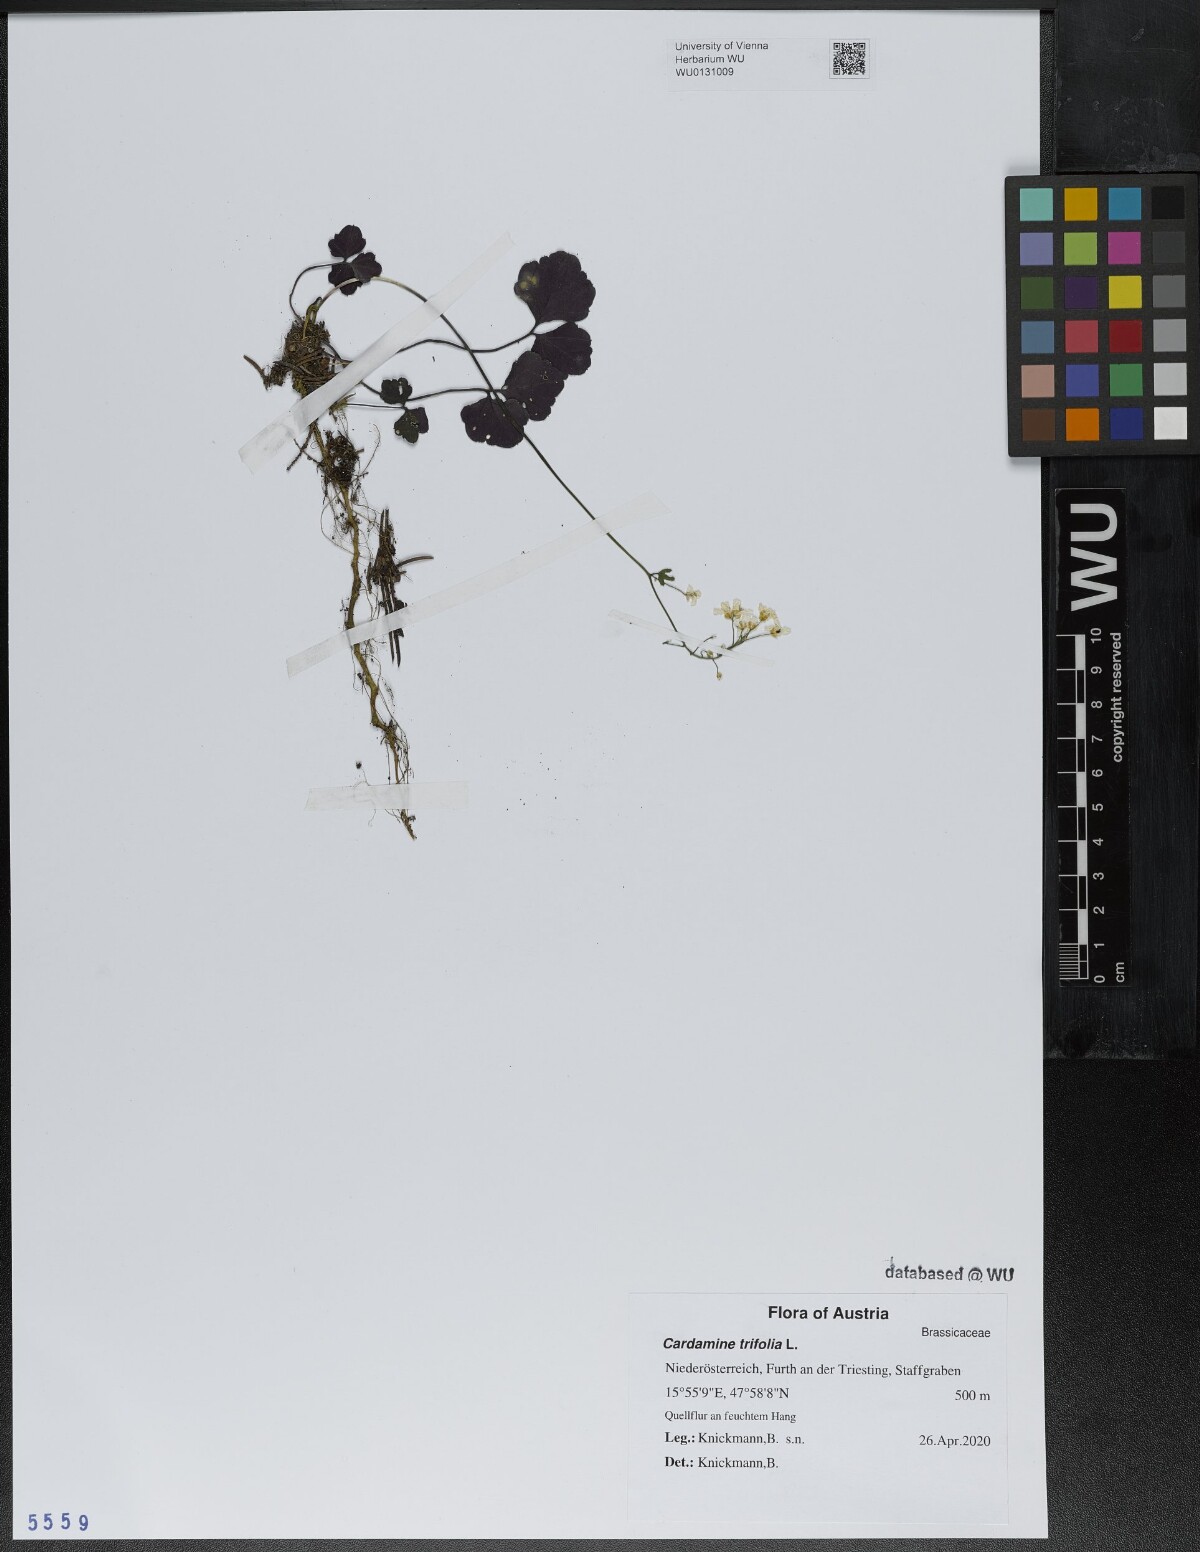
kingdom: Plantae
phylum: Tracheophyta
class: Magnoliopsida
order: Brassicales
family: Brassicaceae
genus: Cardamine
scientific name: Cardamine trifolia
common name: Trefoil cress
